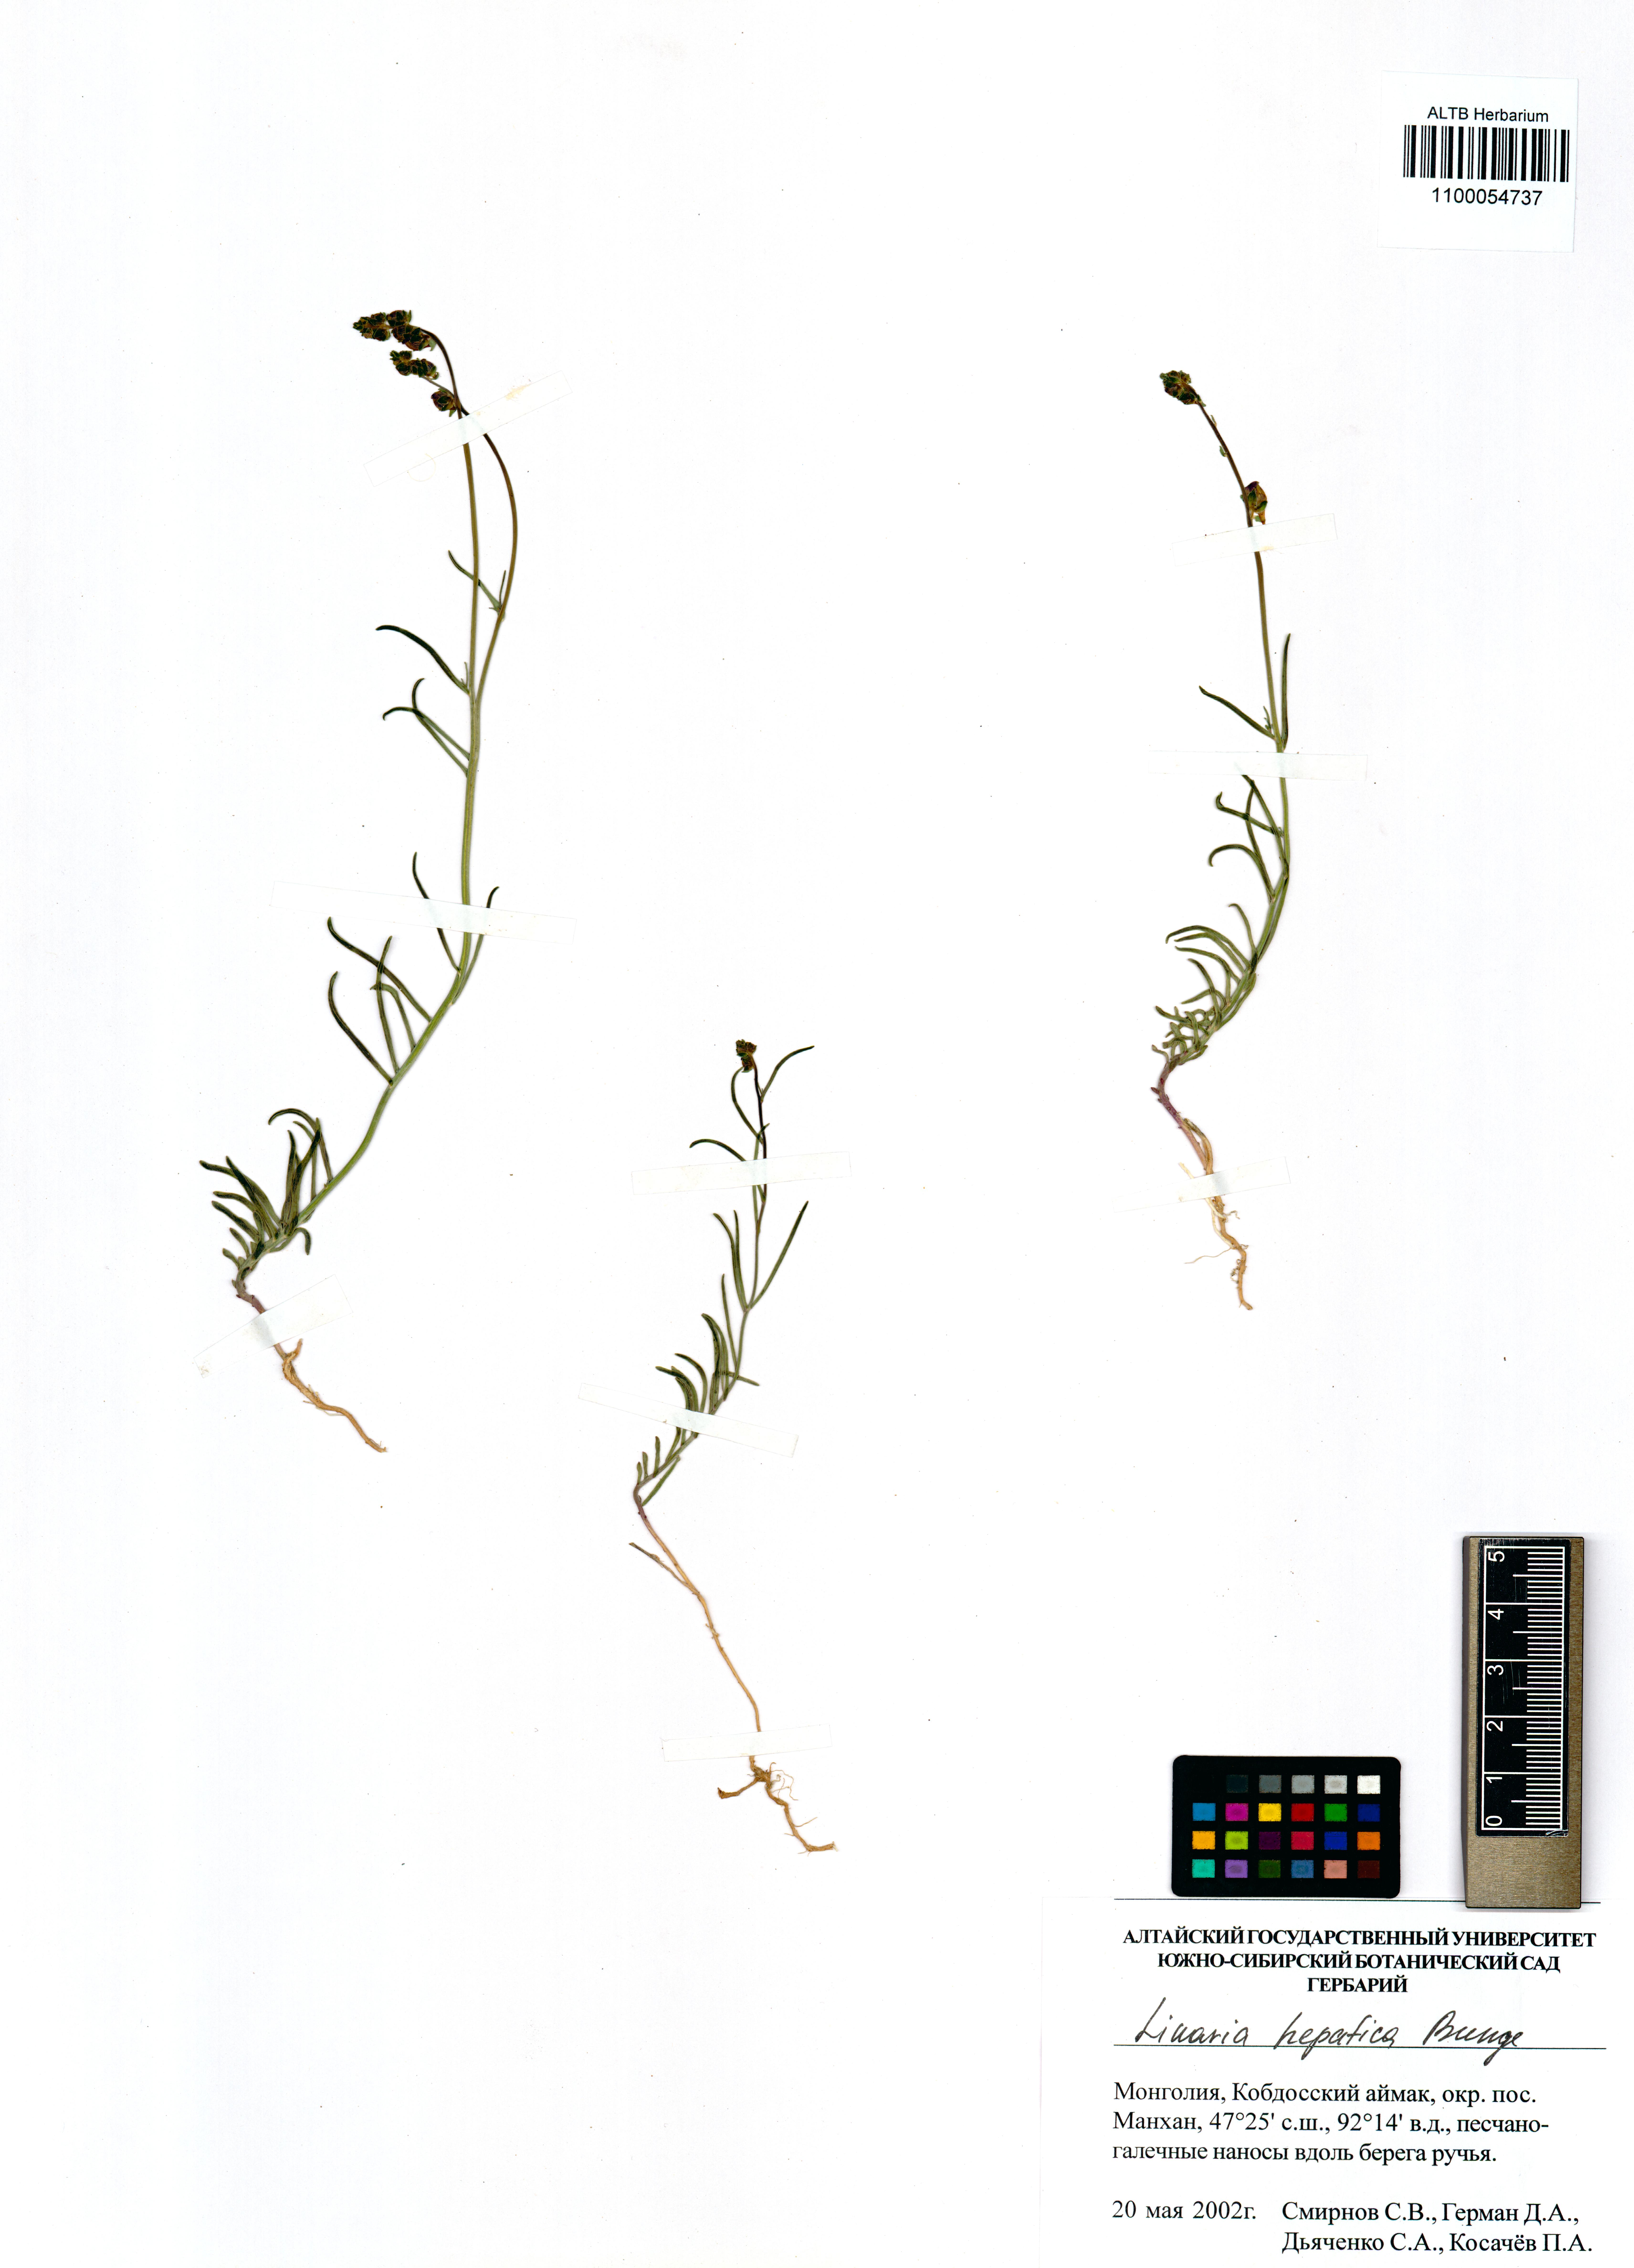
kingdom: Plantae
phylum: Tracheophyta
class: Magnoliopsida
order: Lamiales
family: Plantaginaceae
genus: Linaria
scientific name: Linaria hepatica
